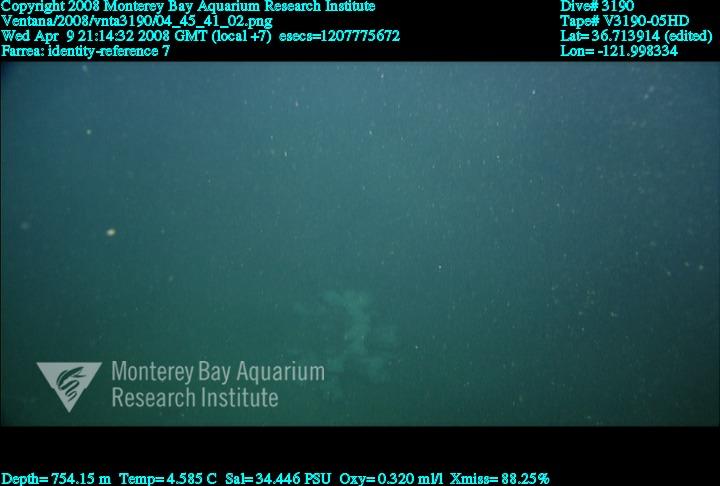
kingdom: Animalia
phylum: Porifera
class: Hexactinellida
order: Sceptrulophora
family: Farreidae
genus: Farrea
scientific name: Farrea
